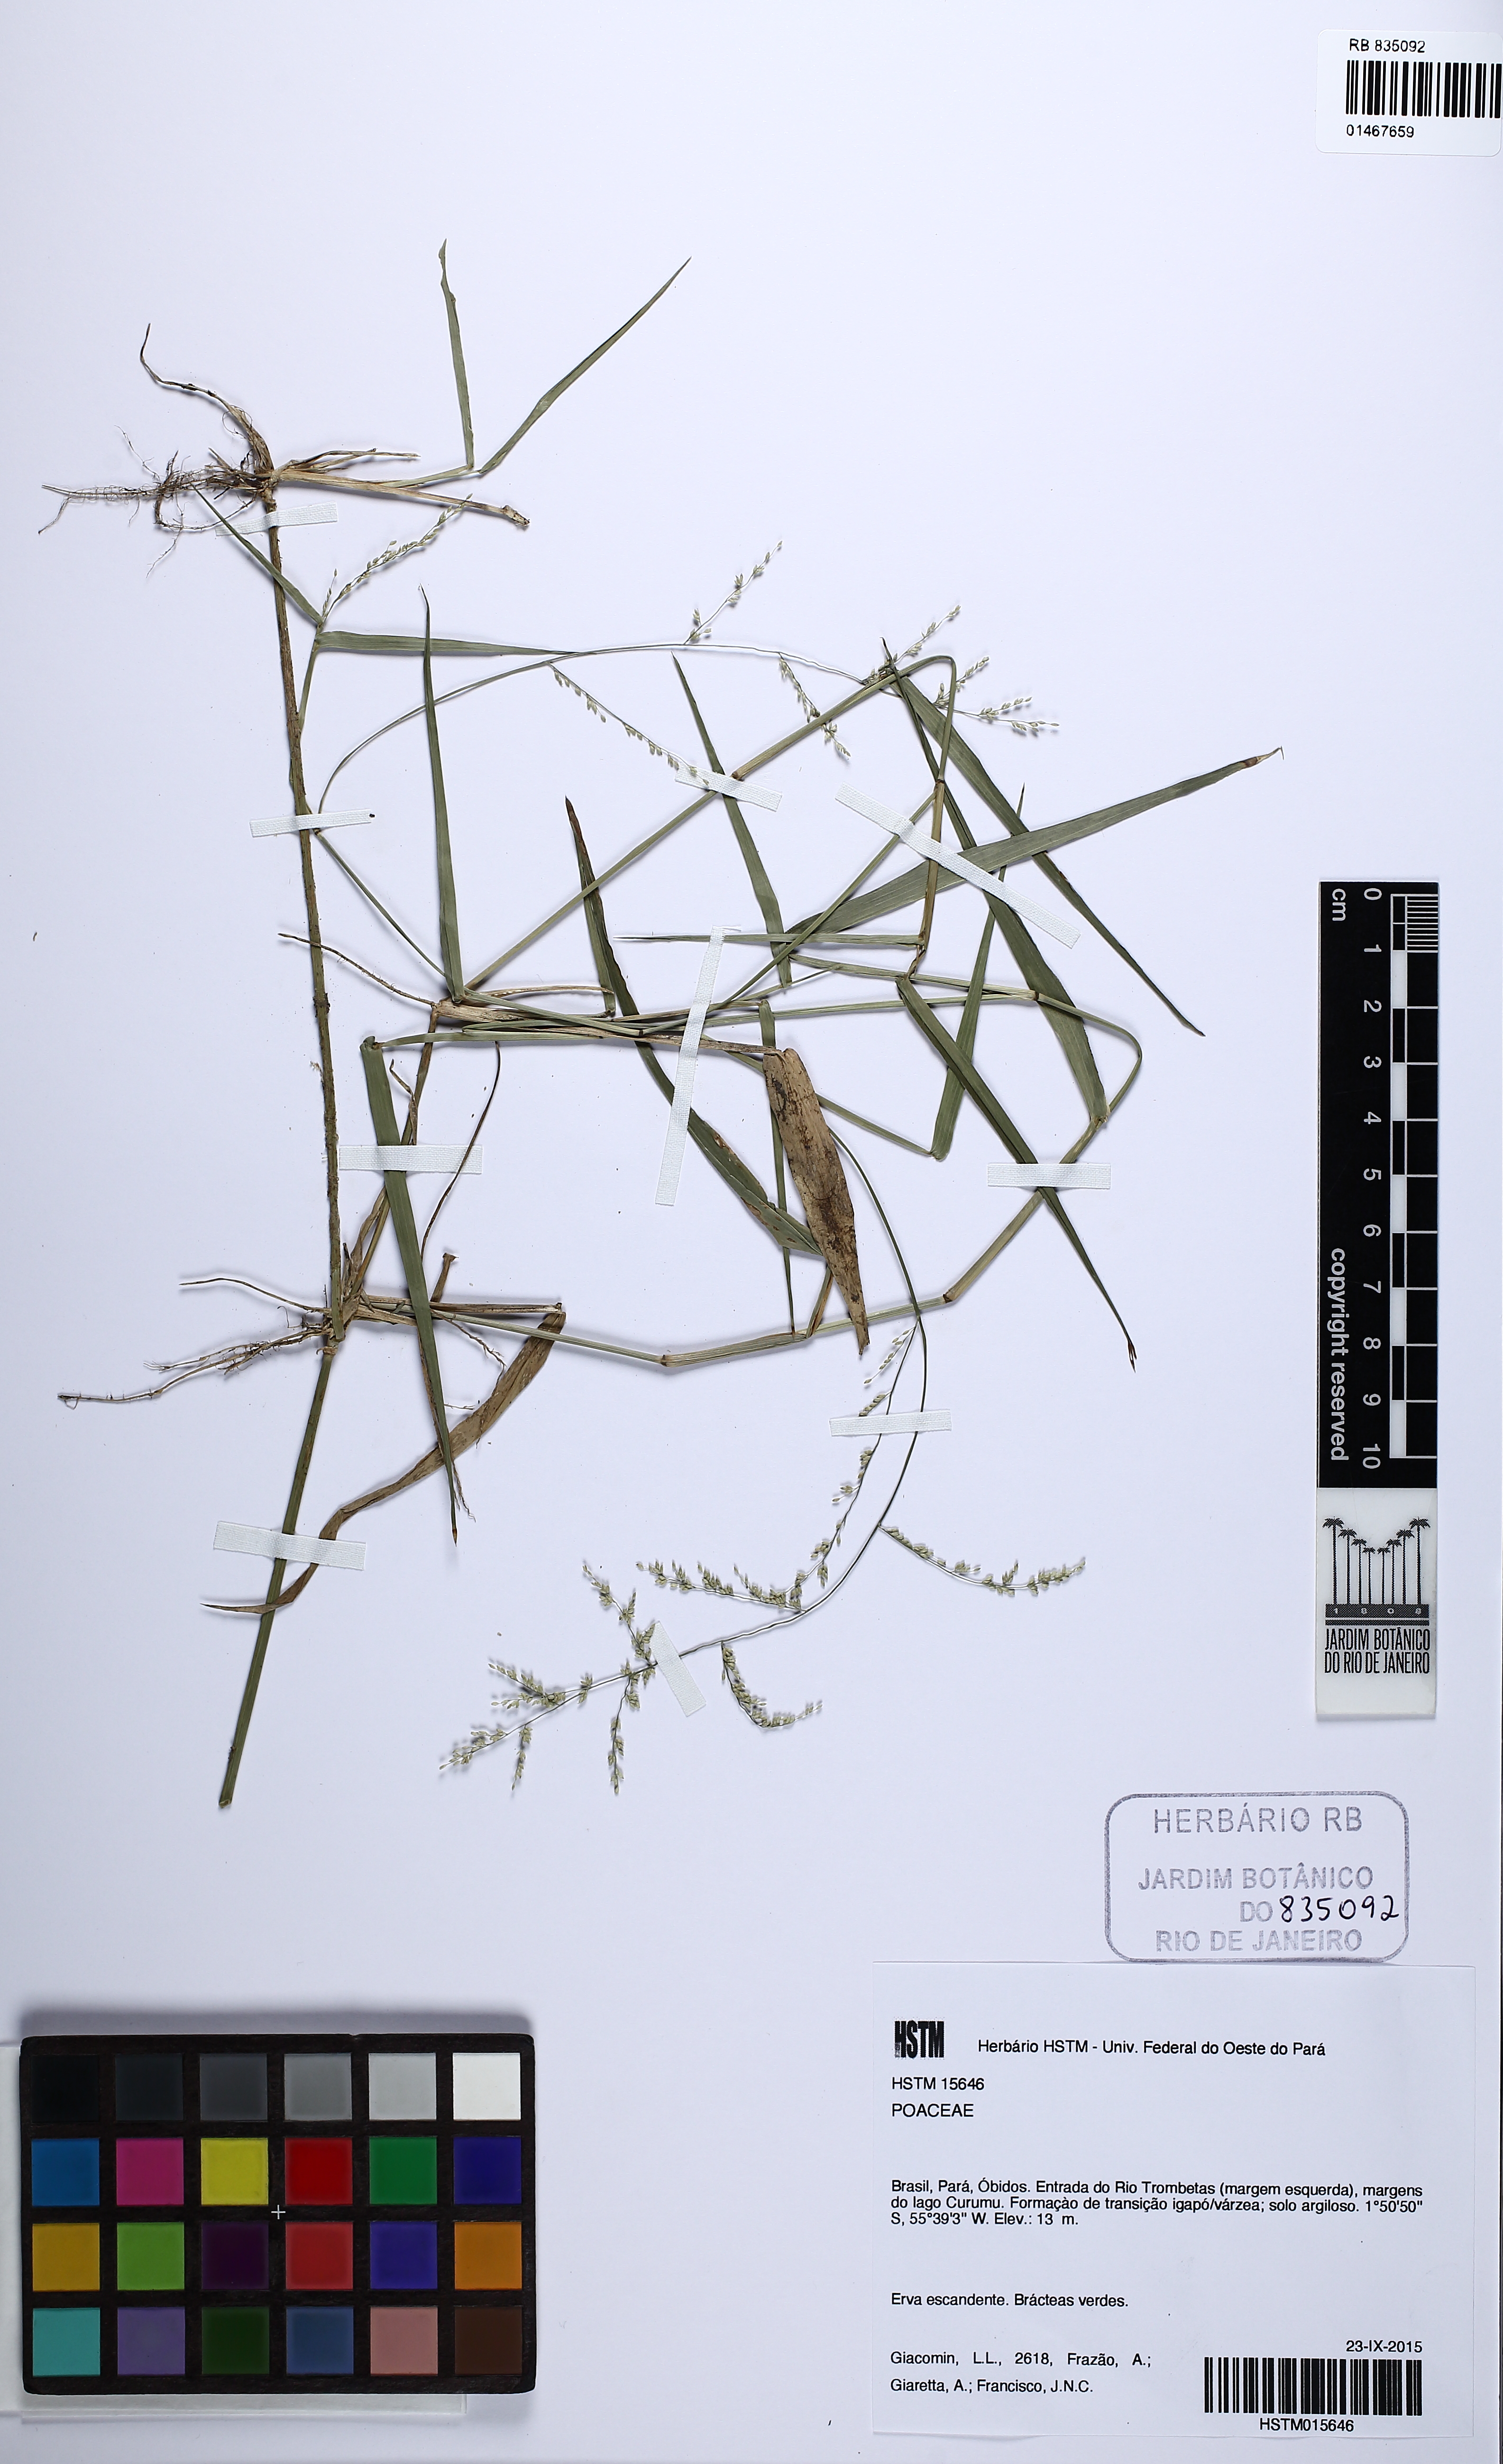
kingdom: Plantae
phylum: Tracheophyta
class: Liliopsida
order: Poales
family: Poaceae
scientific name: Poaceae
